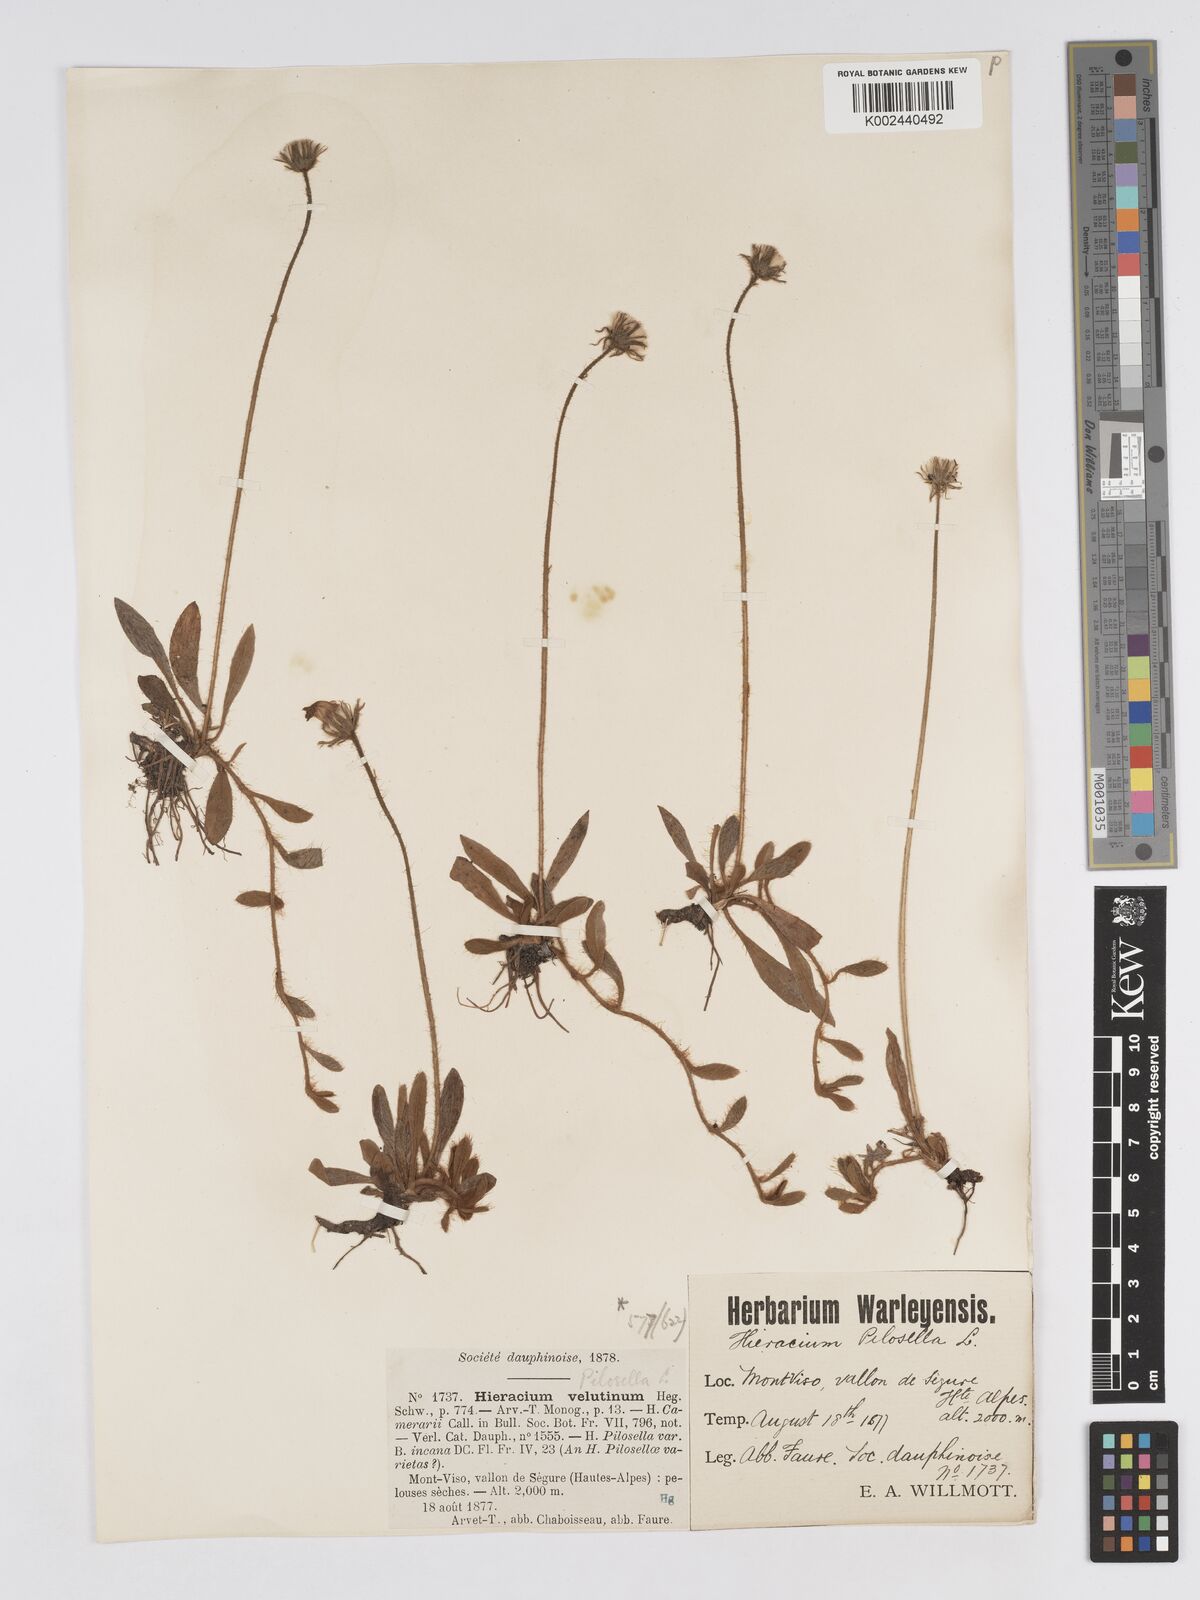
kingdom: Plantae
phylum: Tracheophyta
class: Magnoliopsida
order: Asterales
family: Asteraceae
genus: Pilosella
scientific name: Pilosella velutina
